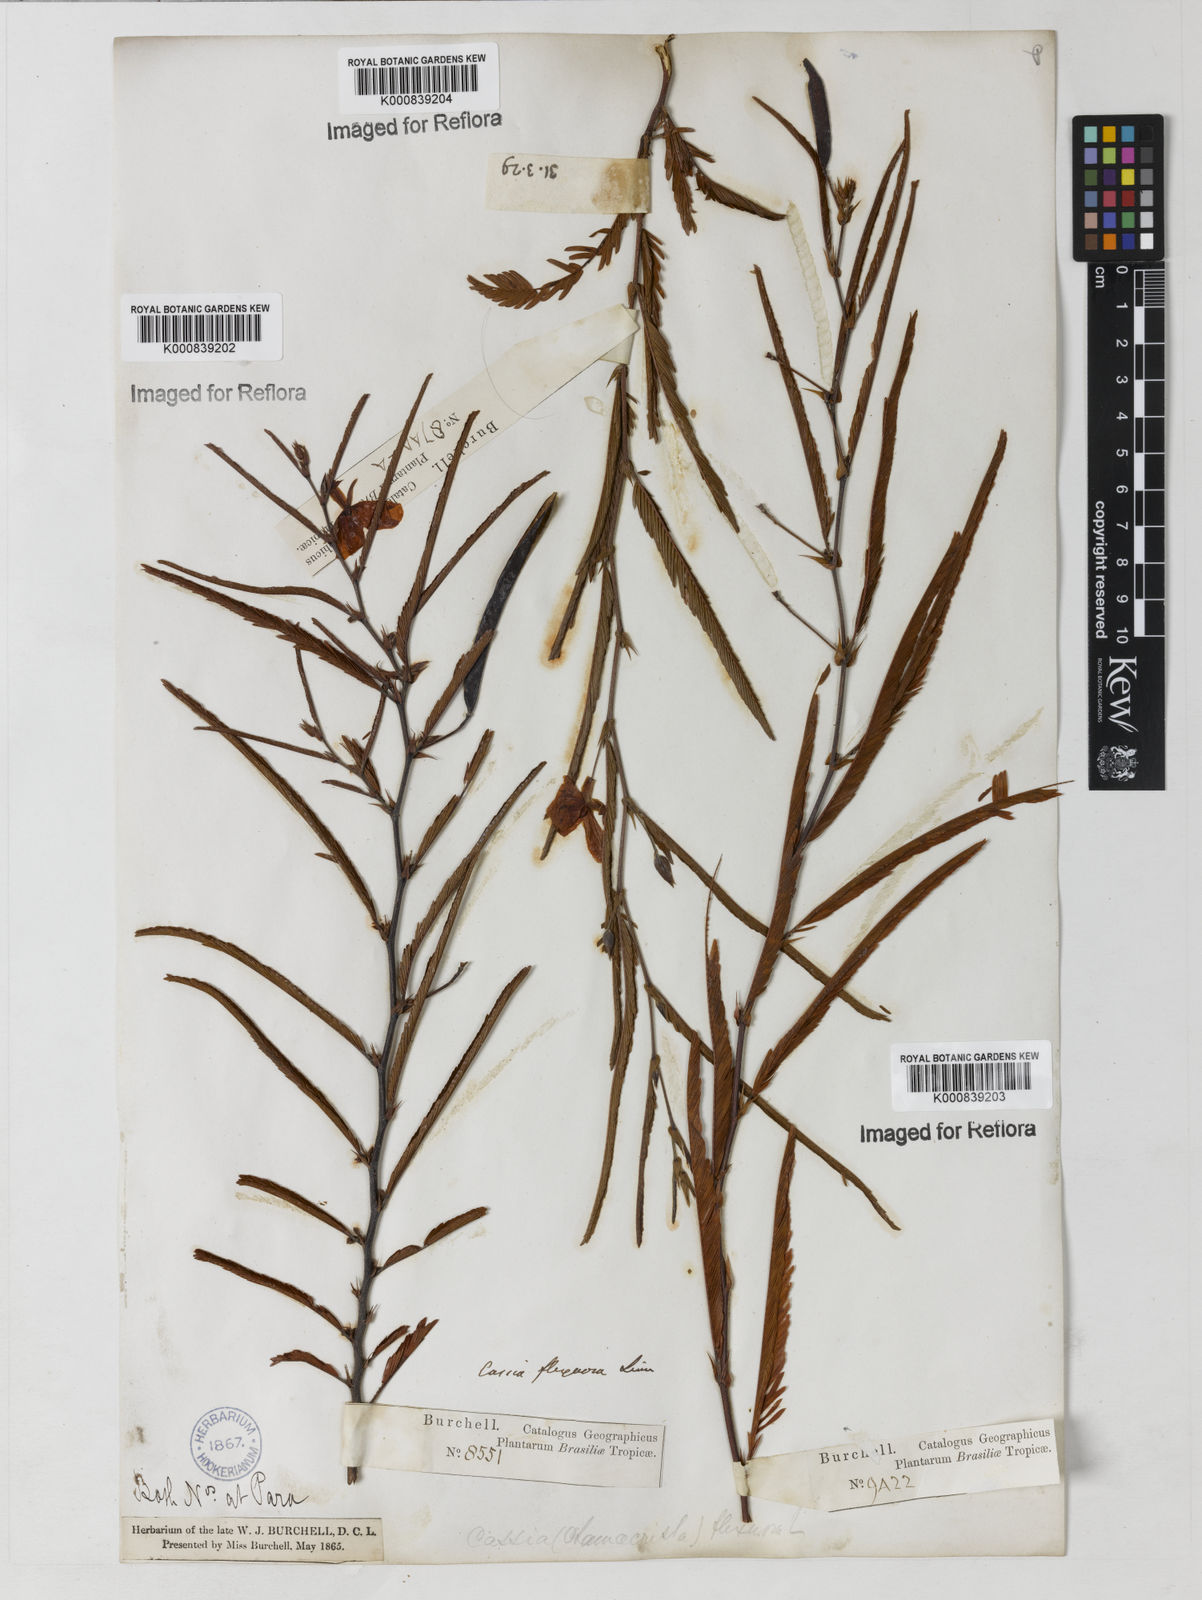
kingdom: Plantae
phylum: Tracheophyta
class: Magnoliopsida
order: Fabales
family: Fabaceae
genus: Chamaecrista
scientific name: Chamaecrista flexuosa
